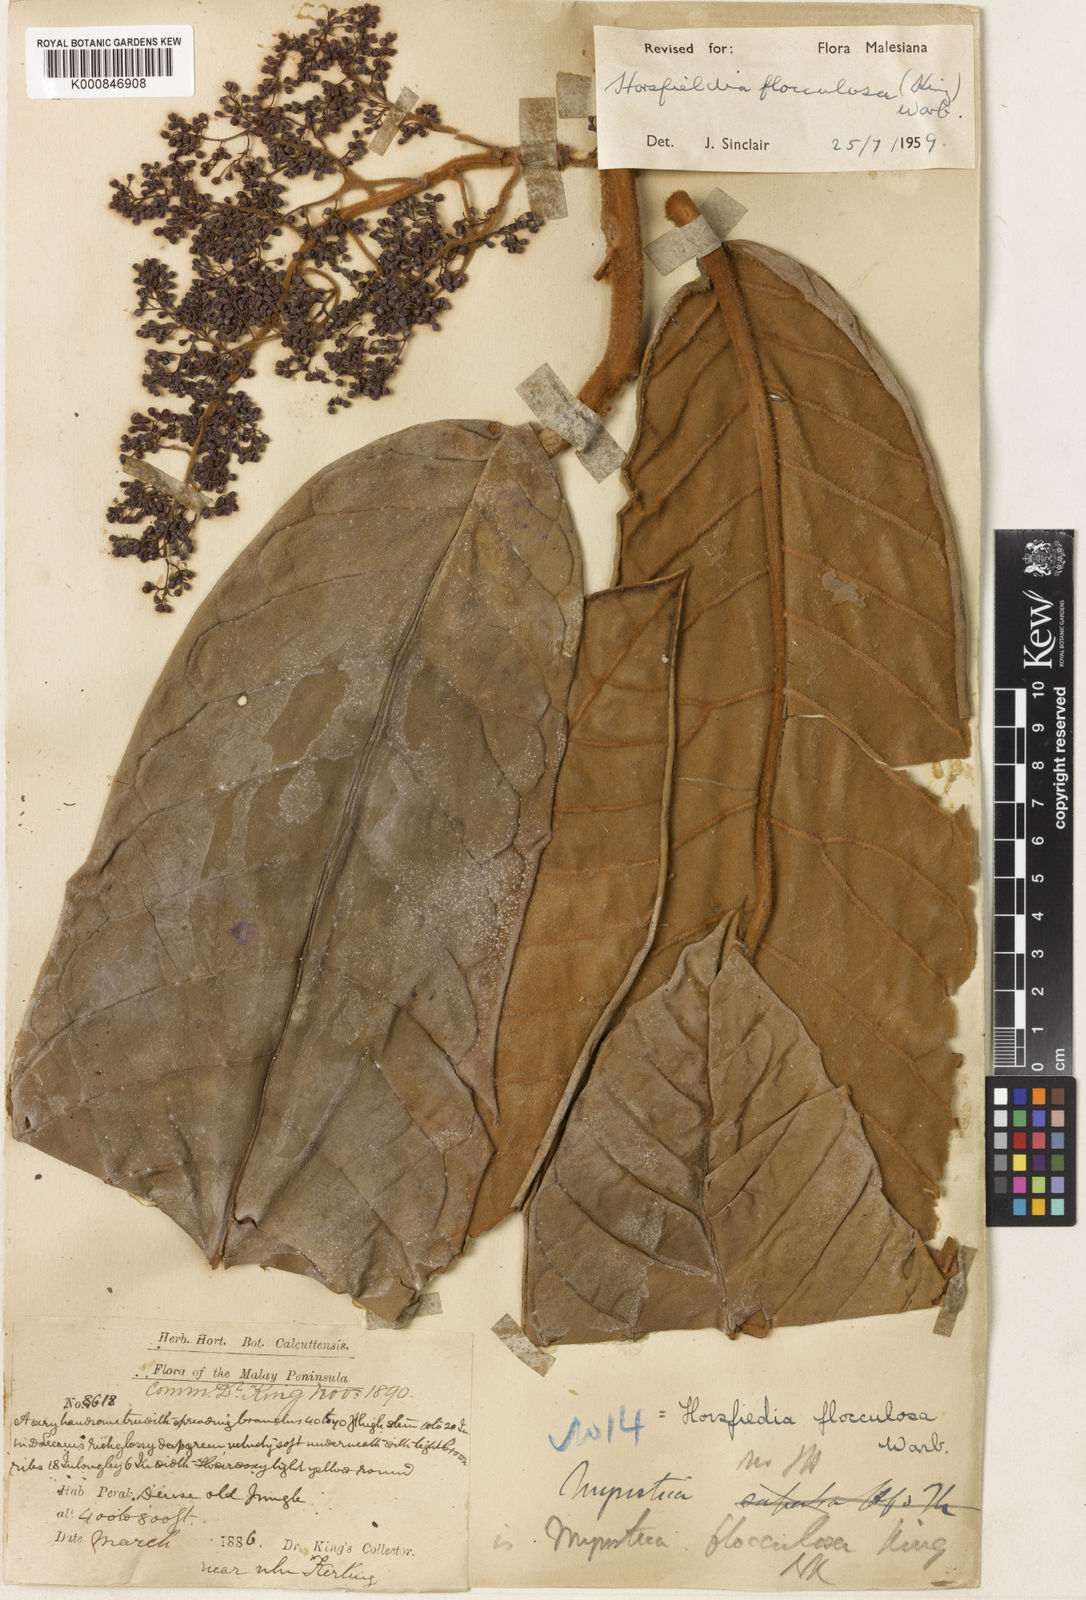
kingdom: Plantae
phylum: Tracheophyta
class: Magnoliopsida
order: Magnoliales
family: Myristicaceae
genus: Horsfieldia
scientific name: Horsfieldia flocculosa
